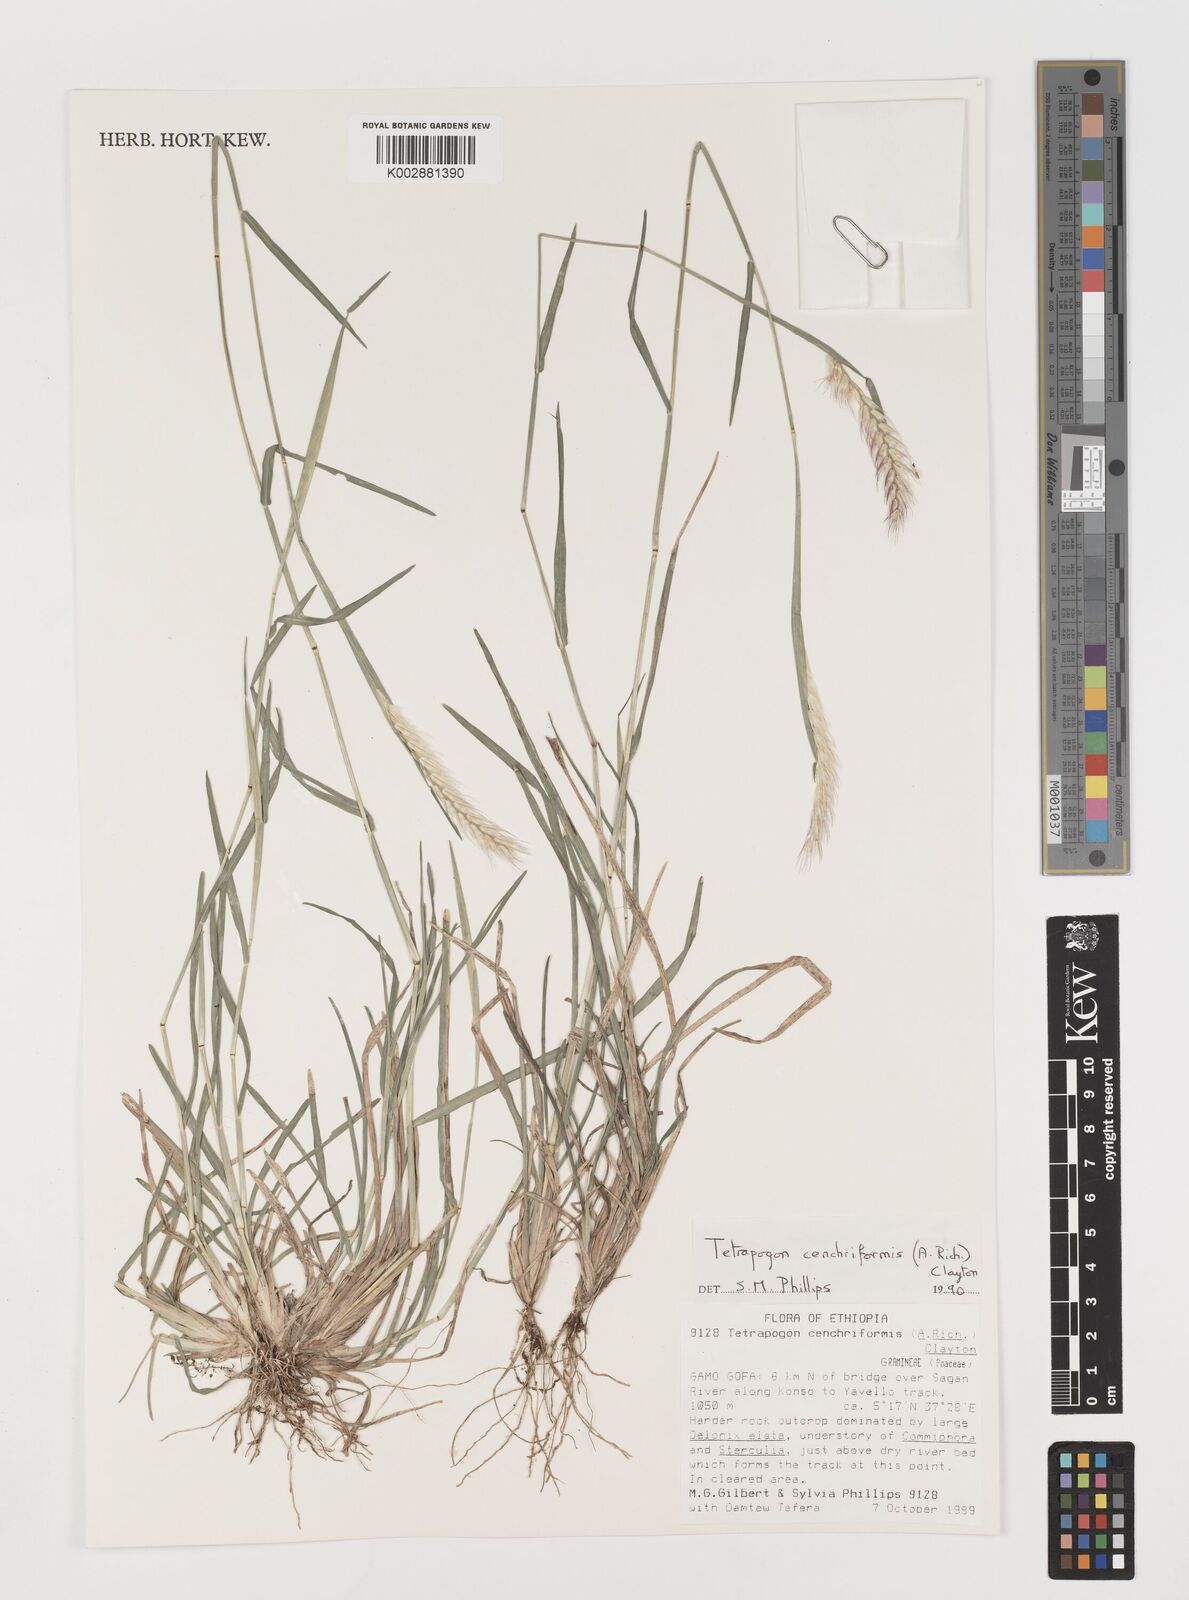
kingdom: Plantae
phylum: Tracheophyta
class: Liliopsida
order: Poales
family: Poaceae
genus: Tetrapogon
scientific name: Tetrapogon cenchriformis
